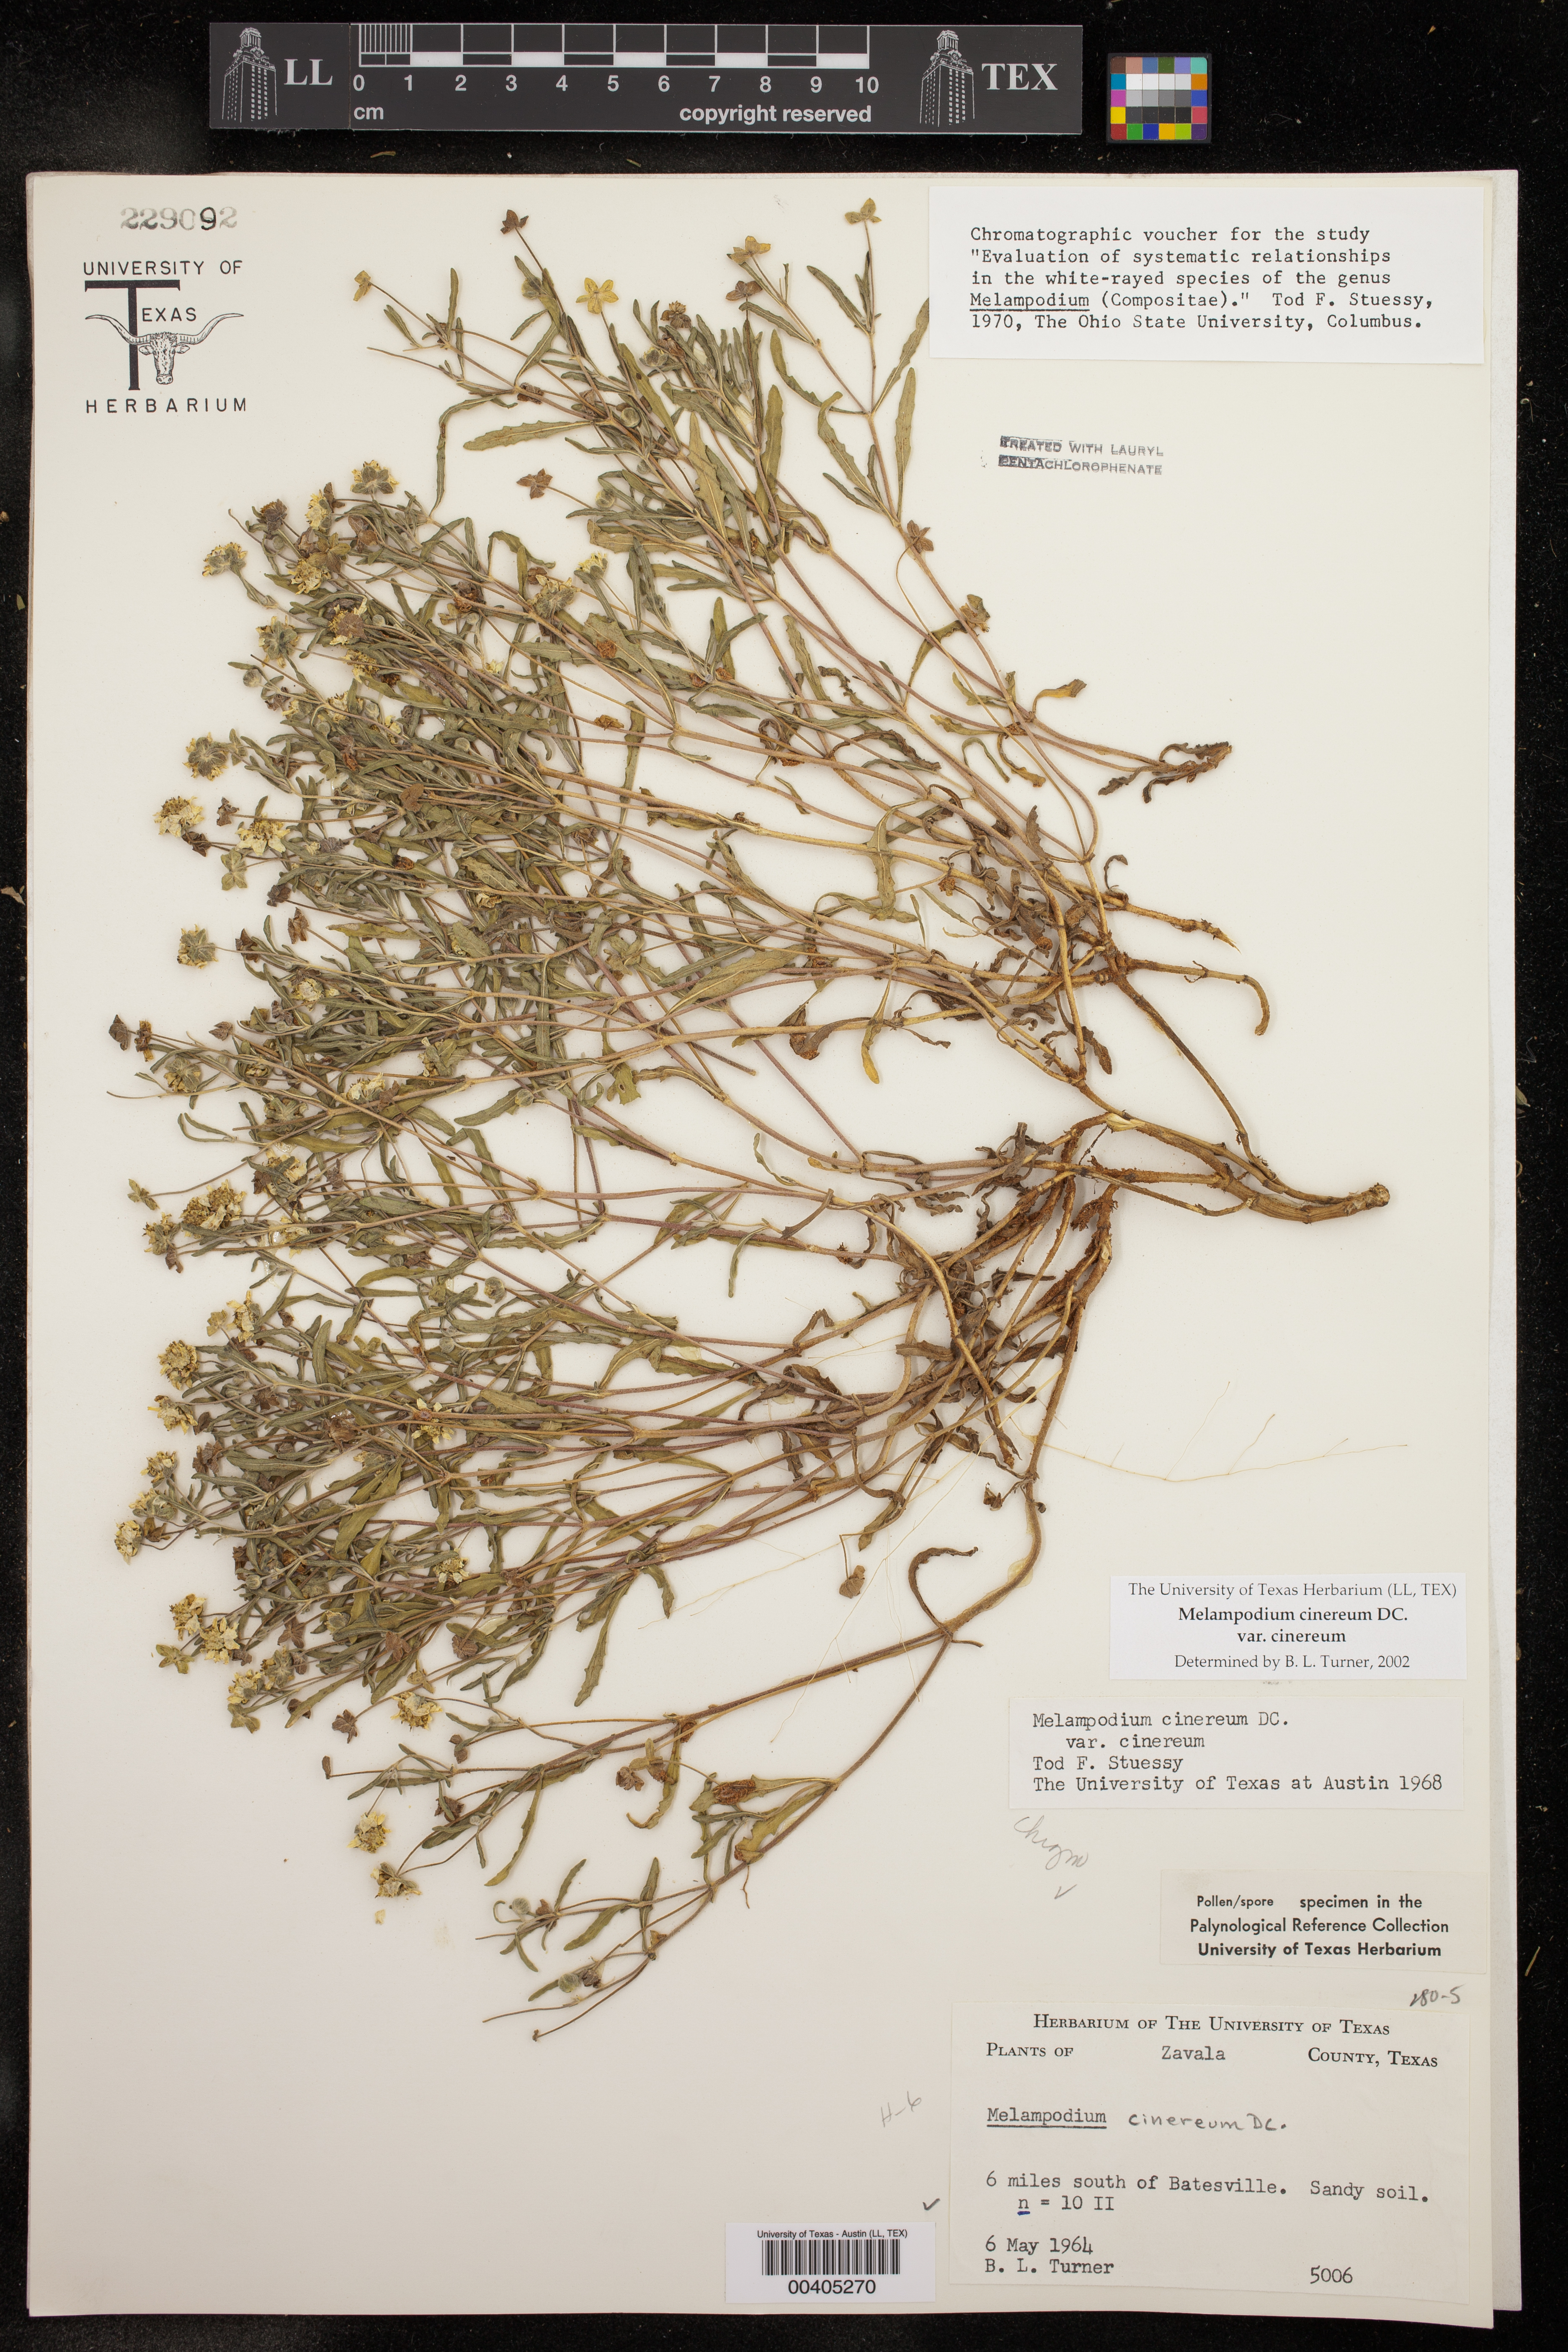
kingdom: Plantae
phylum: Tracheophyta
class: Magnoliopsida
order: Asterales
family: Asteraceae
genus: Melampodium
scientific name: Melampodium cinereum
